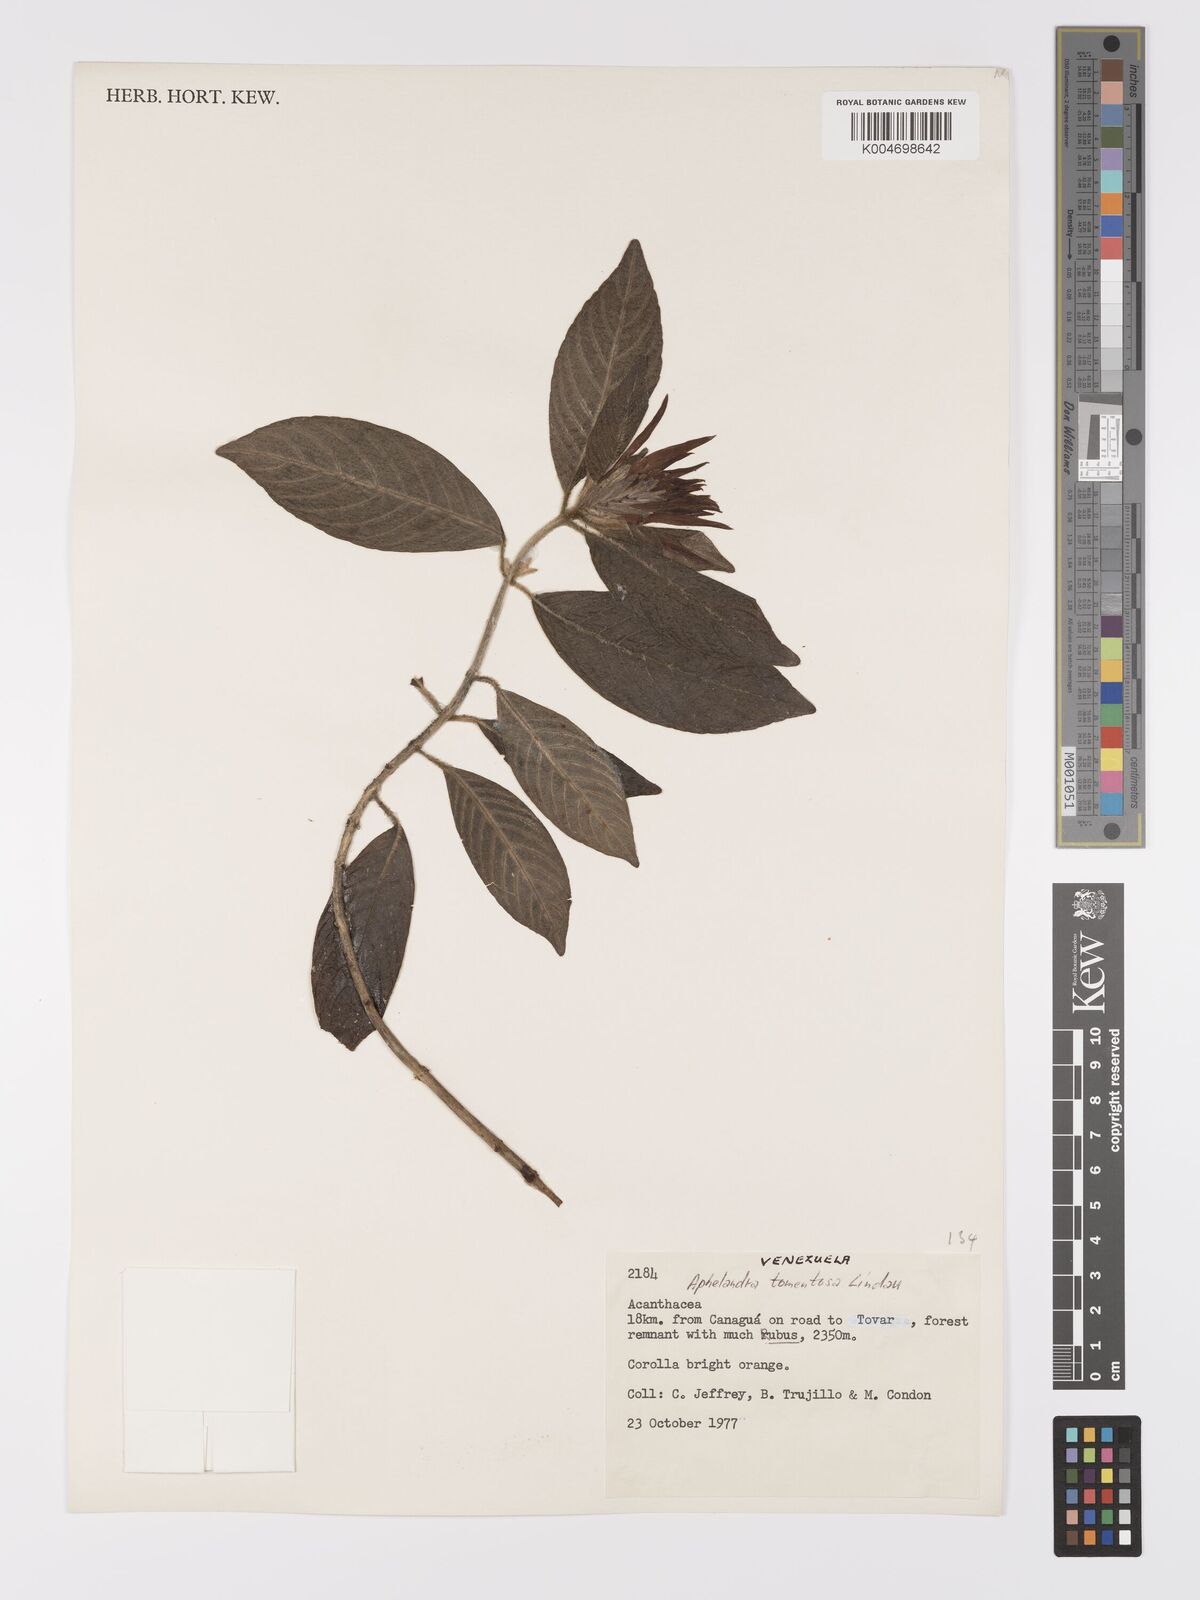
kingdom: Plantae
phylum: Tracheophyta
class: Magnoliopsida
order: Lamiales
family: Acanthaceae
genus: Aphelandra
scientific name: Aphelandra tomentosa
